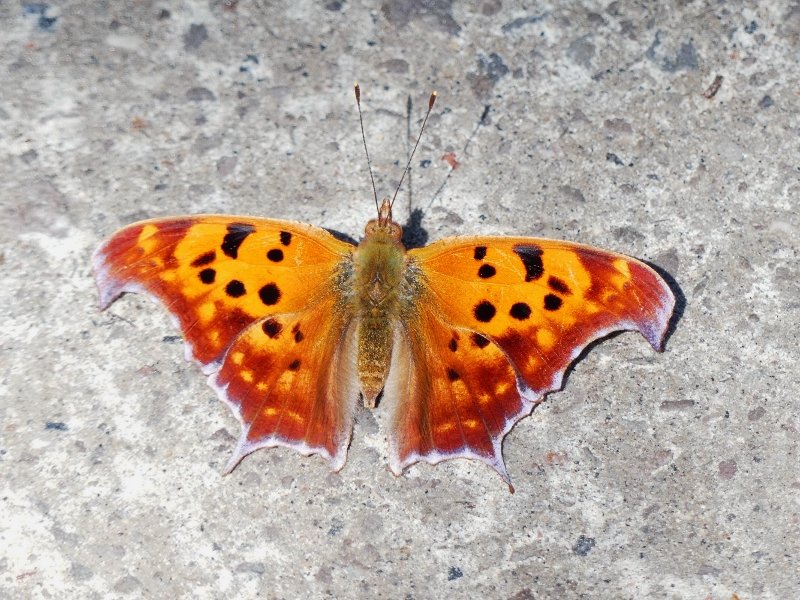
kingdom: Animalia
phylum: Arthropoda
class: Insecta
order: Lepidoptera
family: Nymphalidae
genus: Polygonia
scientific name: Polygonia interrogationis
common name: Question Mark
